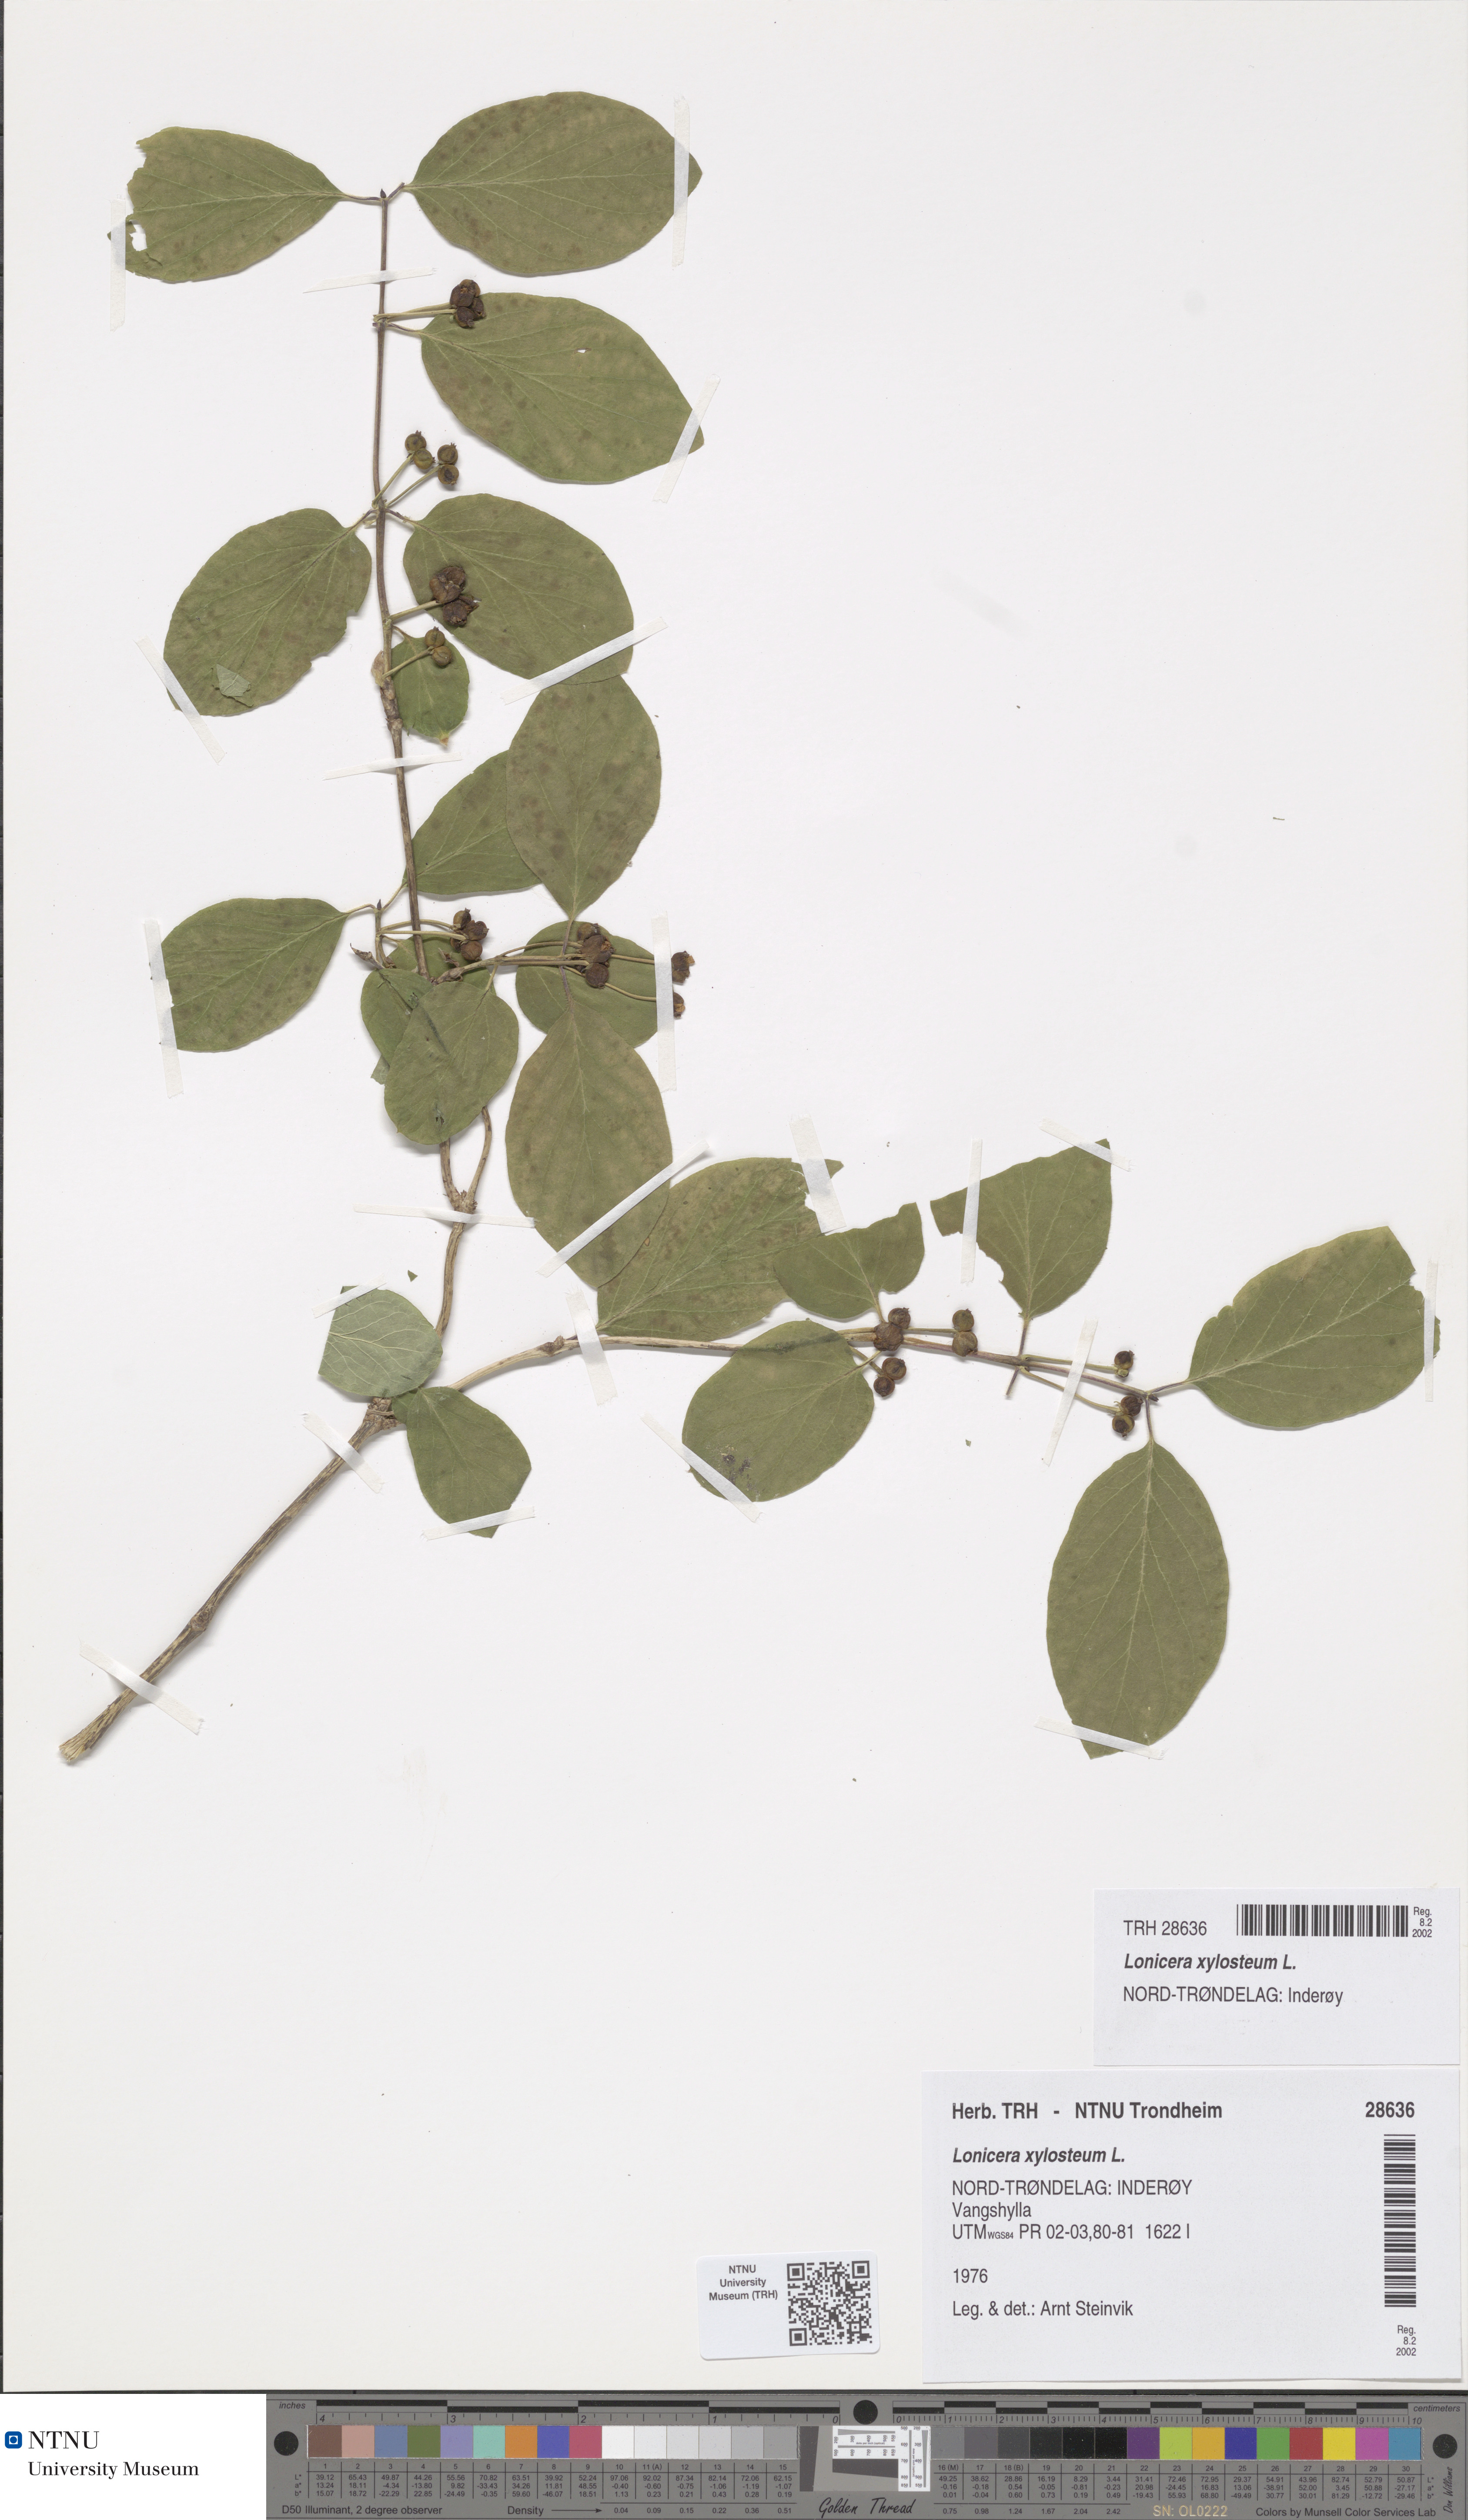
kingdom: Plantae
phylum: Tracheophyta
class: Magnoliopsida
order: Dipsacales
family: Caprifoliaceae
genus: Lonicera
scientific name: Lonicera xylosteum
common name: Fly honeysuckle
